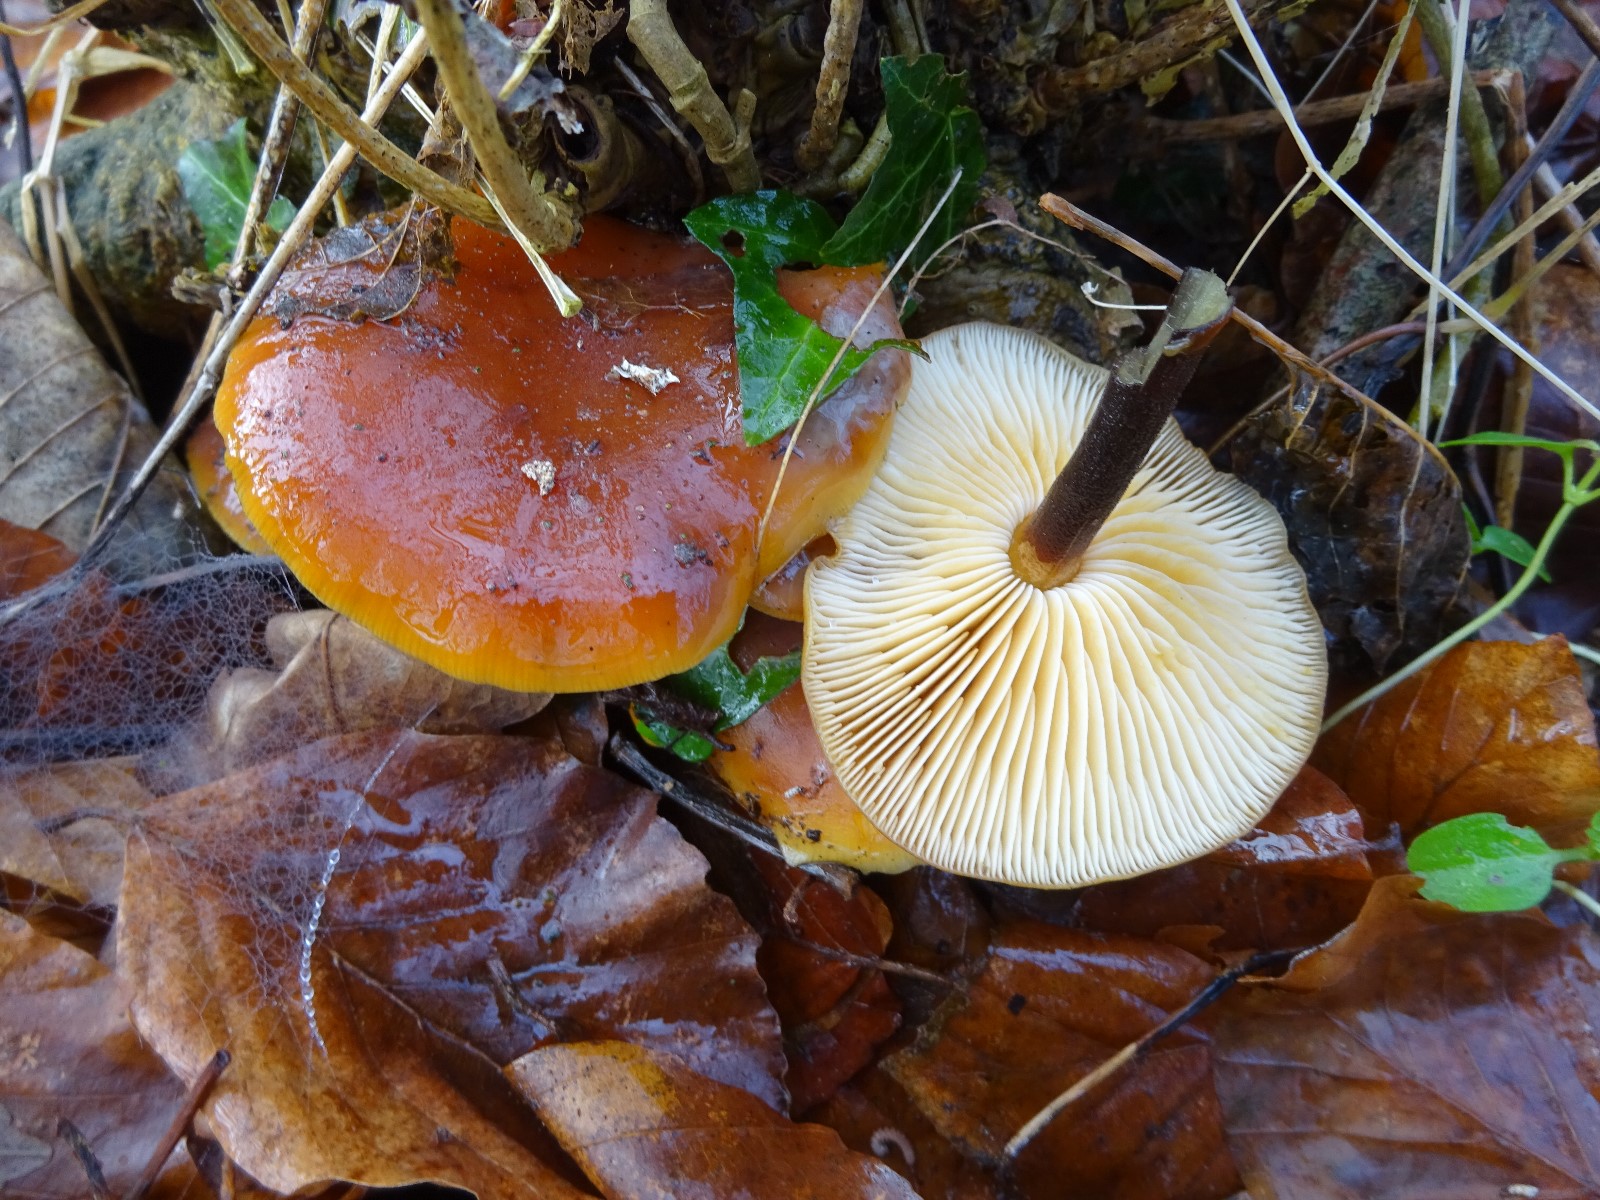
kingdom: Fungi
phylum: Basidiomycota
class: Agaricomycetes
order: Agaricales
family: Physalacriaceae
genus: Flammulina
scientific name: Flammulina velutipes
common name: gul fløjlsfod
